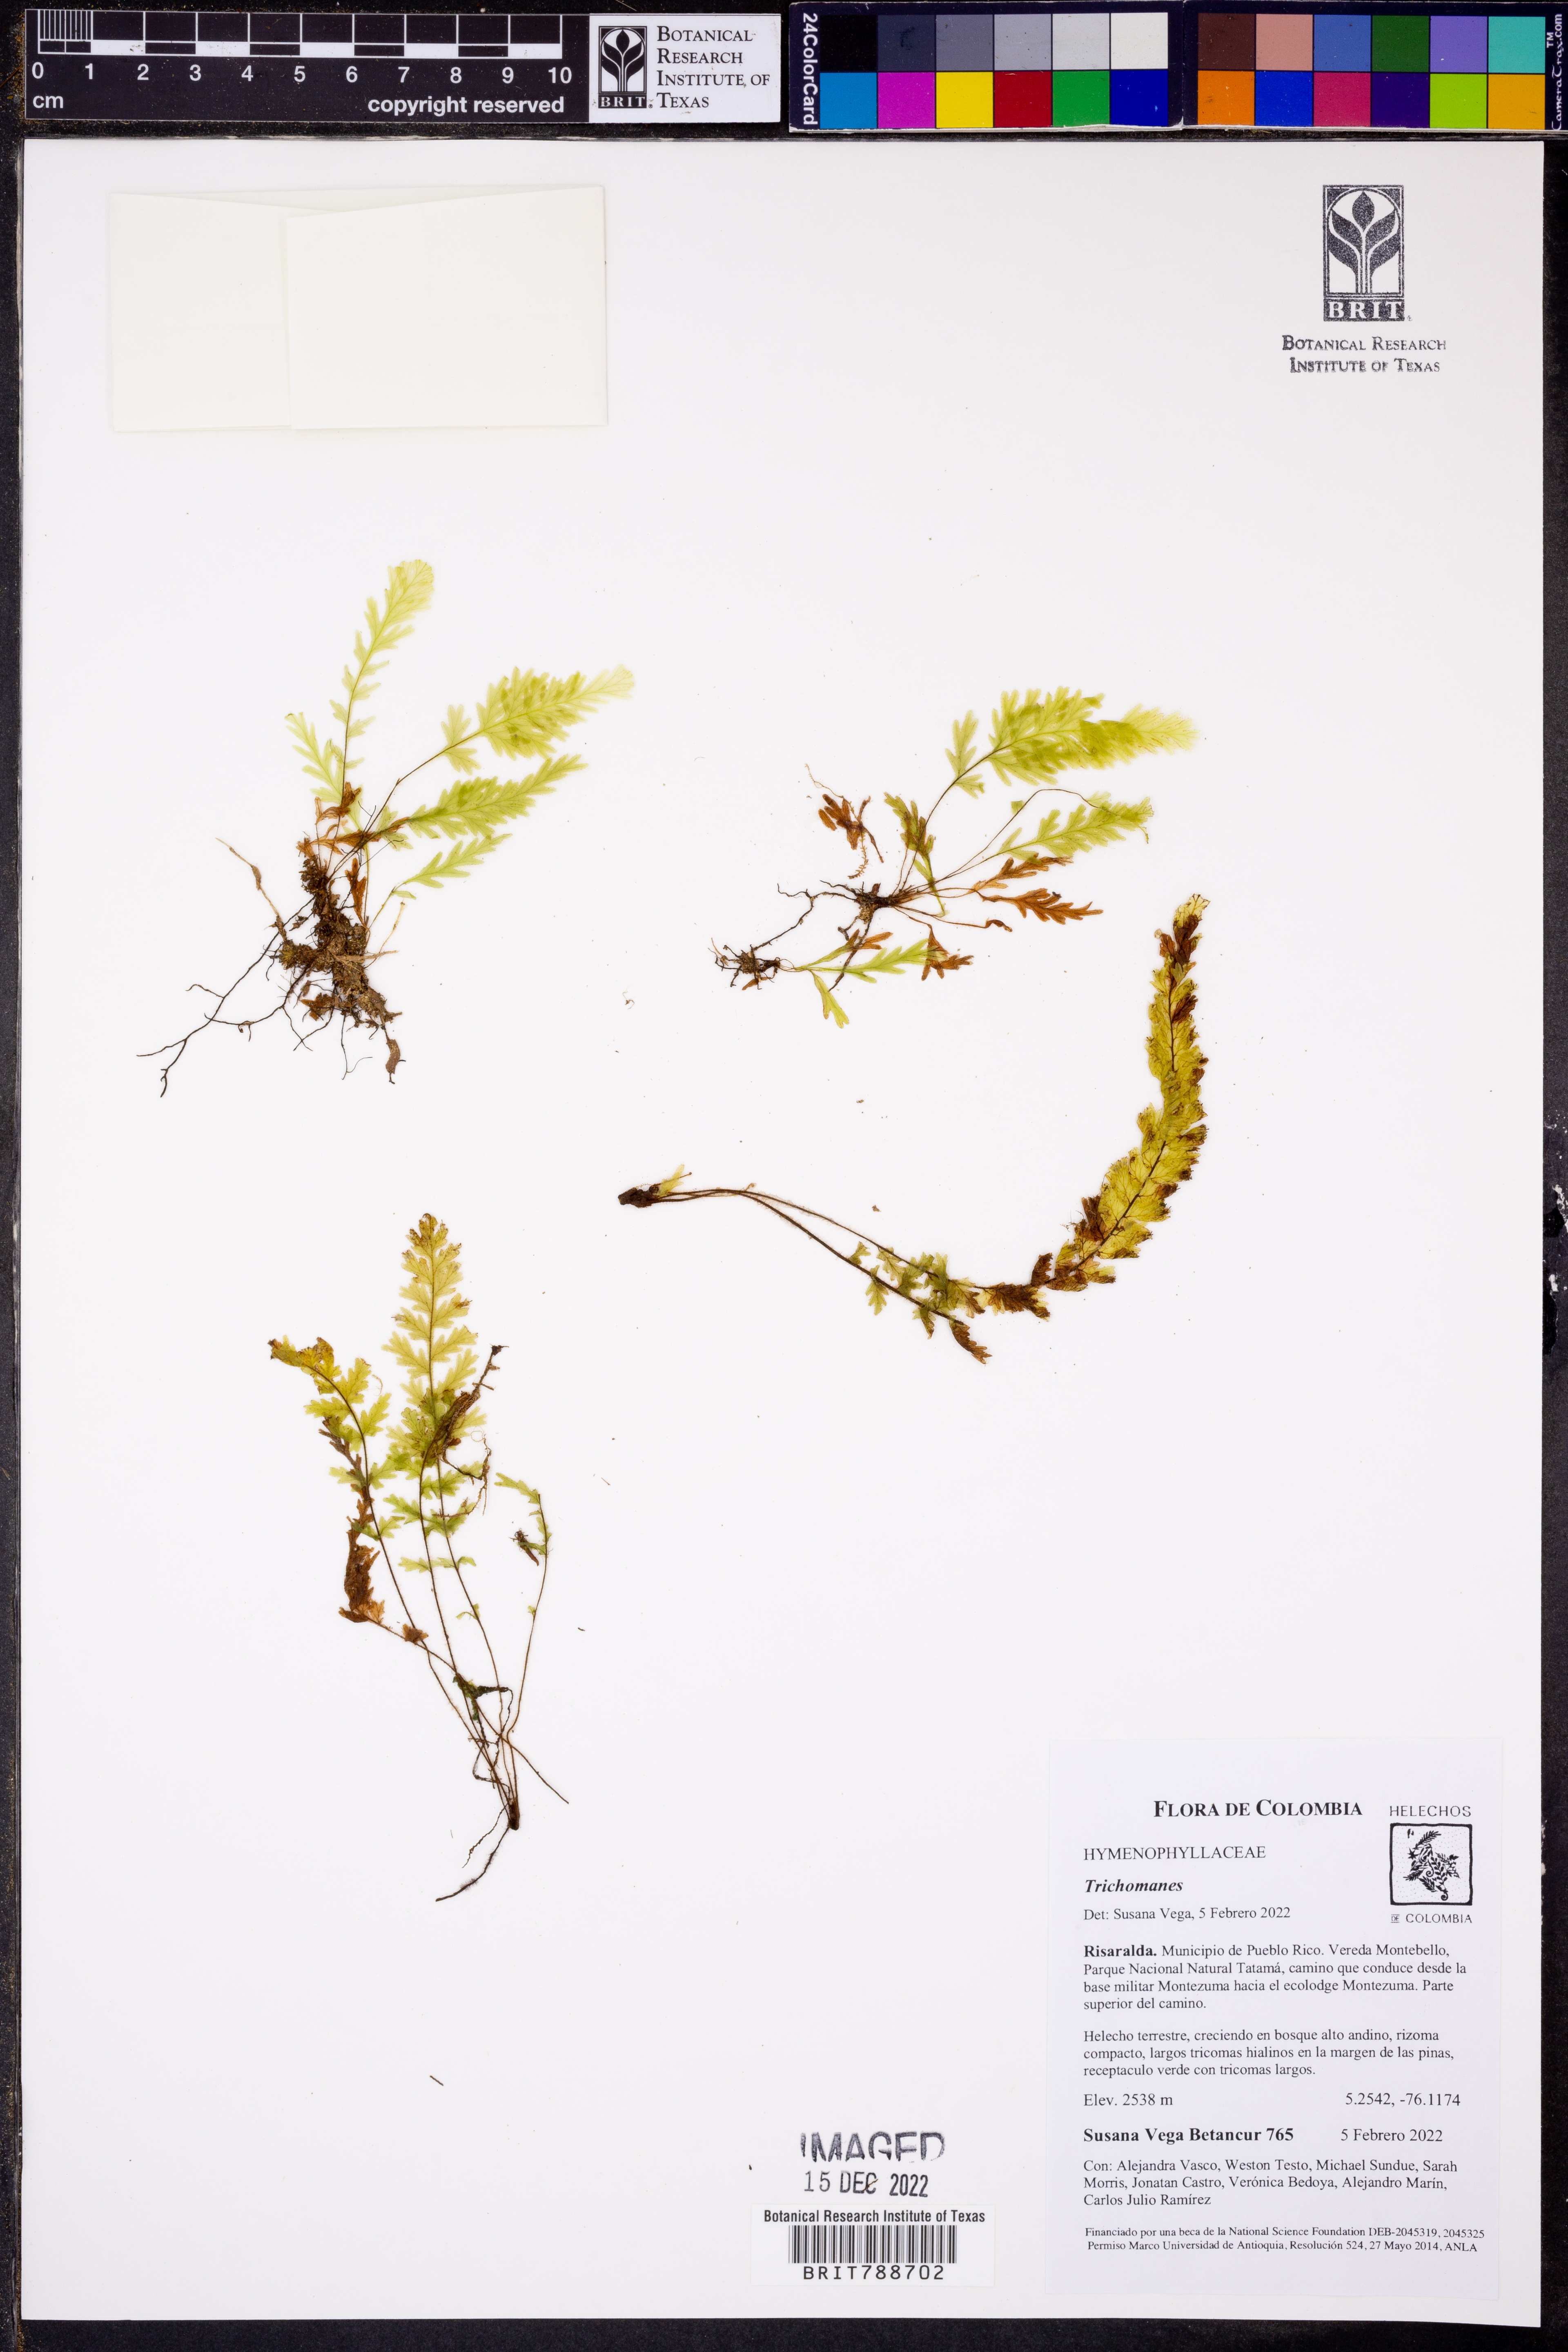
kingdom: Plantae
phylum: Tracheophyta
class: Polypodiopsida
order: Hymenophyllales
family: Hymenophyllaceae
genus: Trichomanes
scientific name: Trichomanes delicatum
